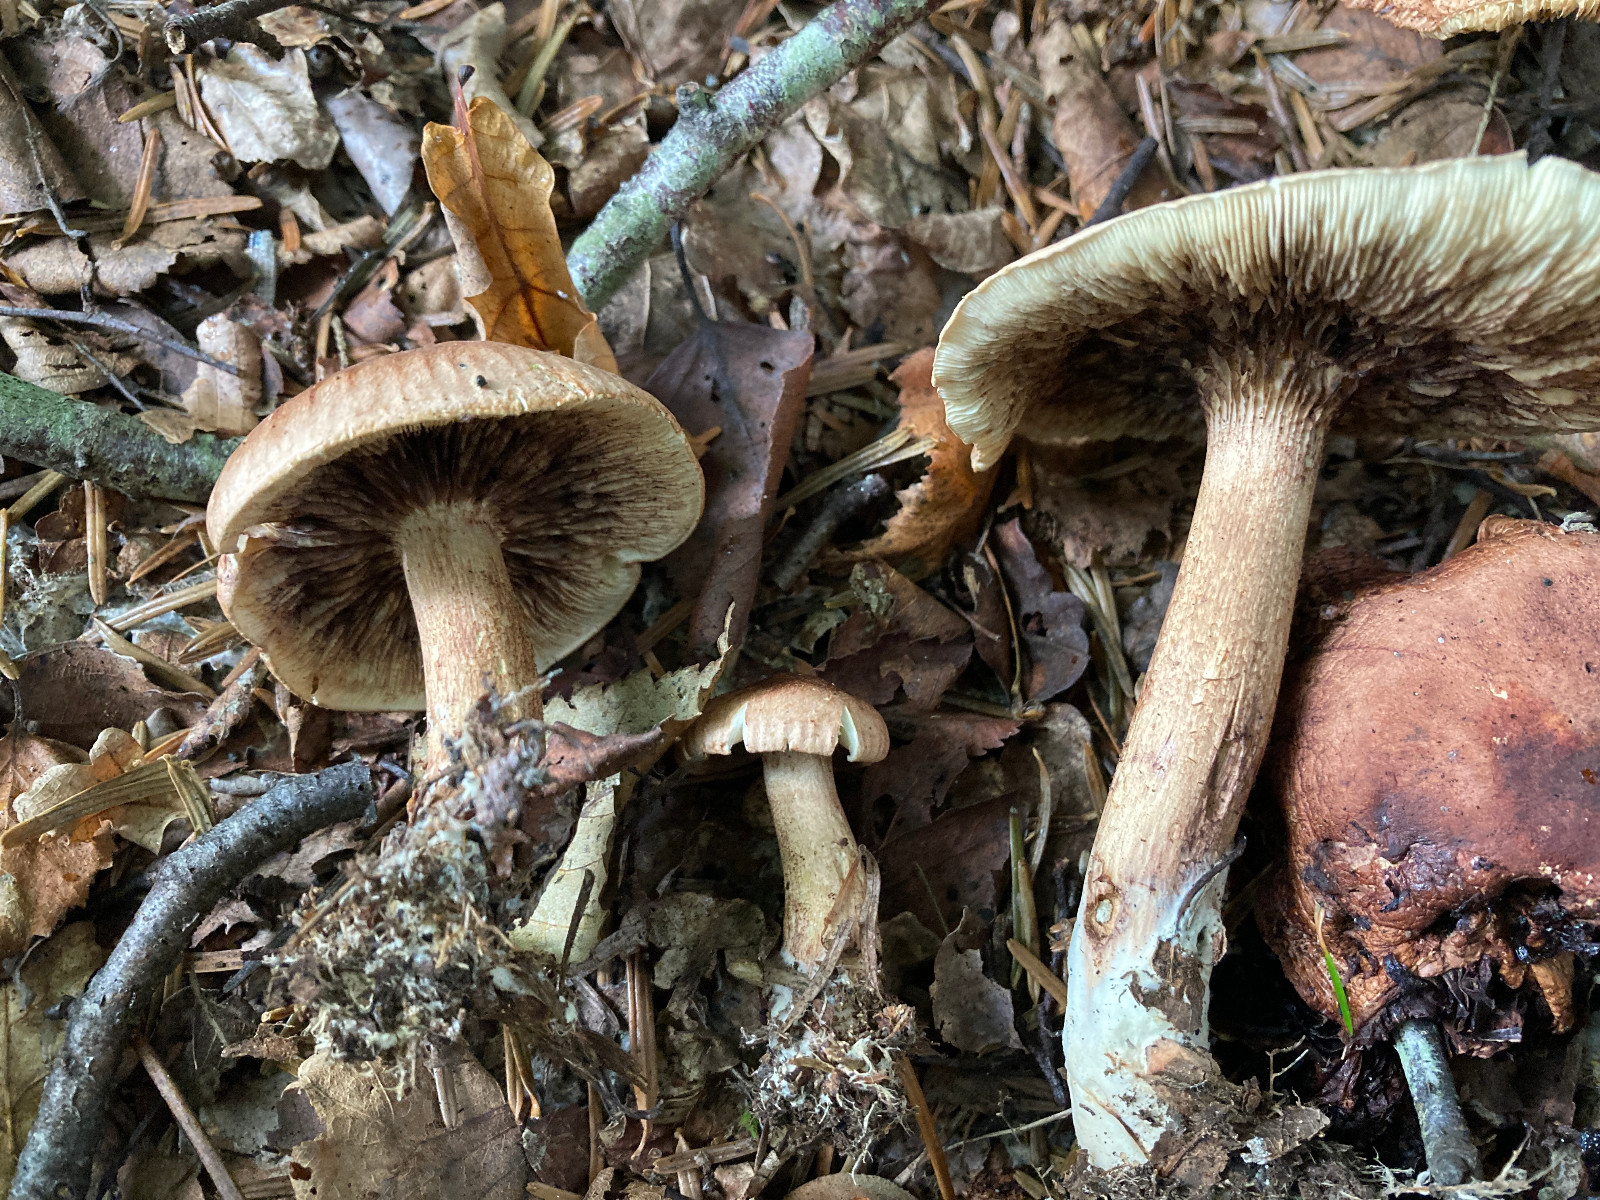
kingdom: Fungi
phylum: Basidiomycota
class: Agaricomycetes
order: Agaricales
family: Tricholomataceae
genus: Tricholoma
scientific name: Tricholoma fulvum
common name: birke-ridderhat
